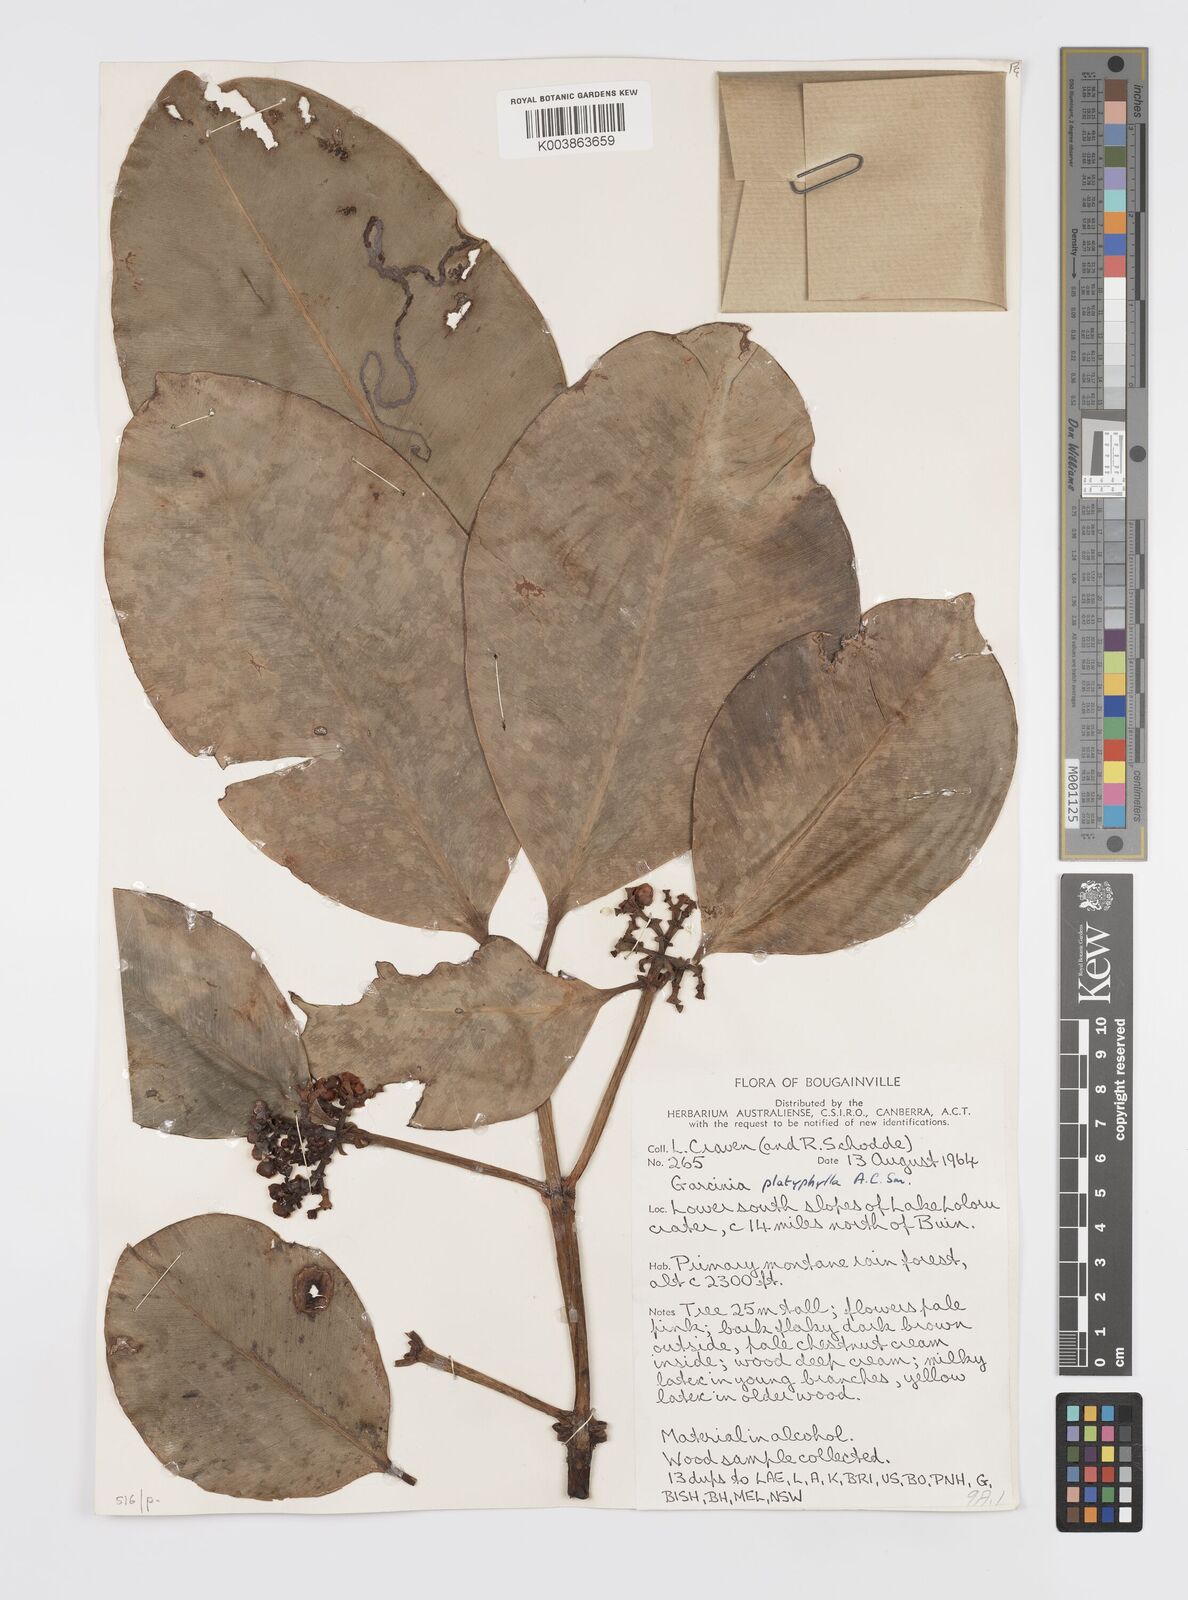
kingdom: Plantae
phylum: Tracheophyta
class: Magnoliopsida
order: Malpighiales
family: Clusiaceae
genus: Garcinia
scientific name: Garcinia platyphylla
